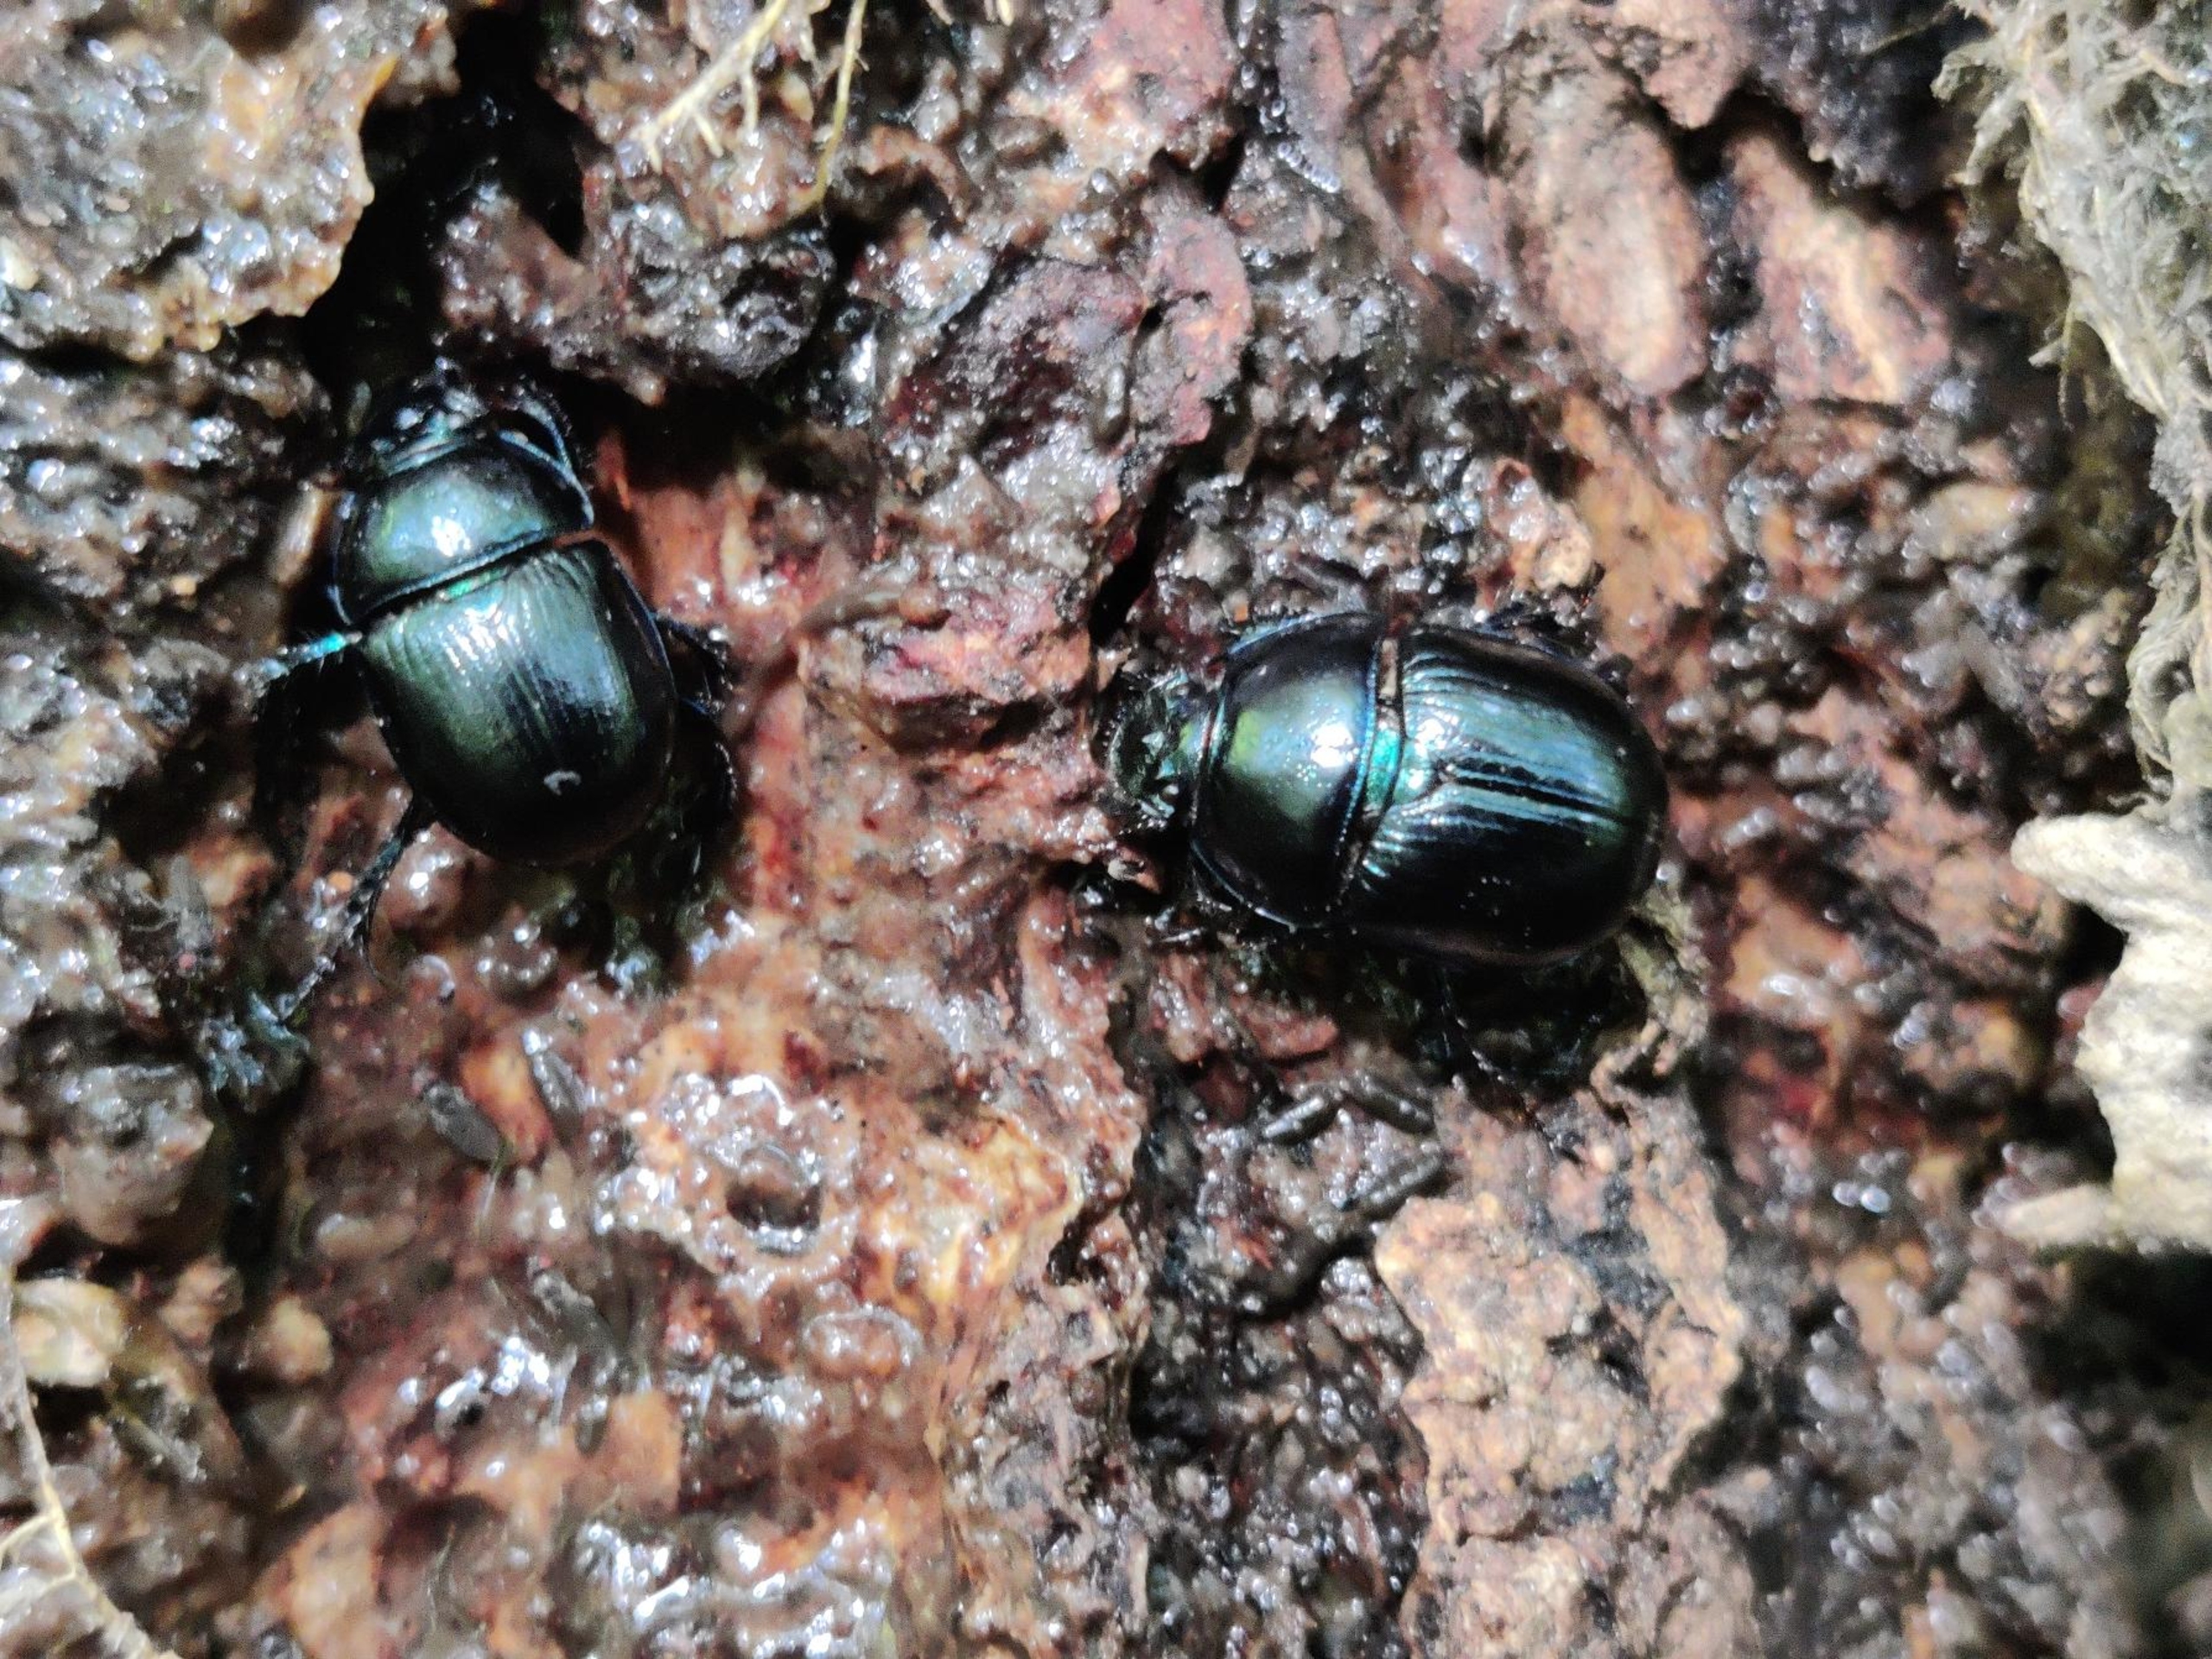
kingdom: Animalia
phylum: Arthropoda
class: Insecta
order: Coleoptera
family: Geotrupidae
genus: Anoplotrupes
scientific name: Anoplotrupes stercorosus
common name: Skovskarnbasse
